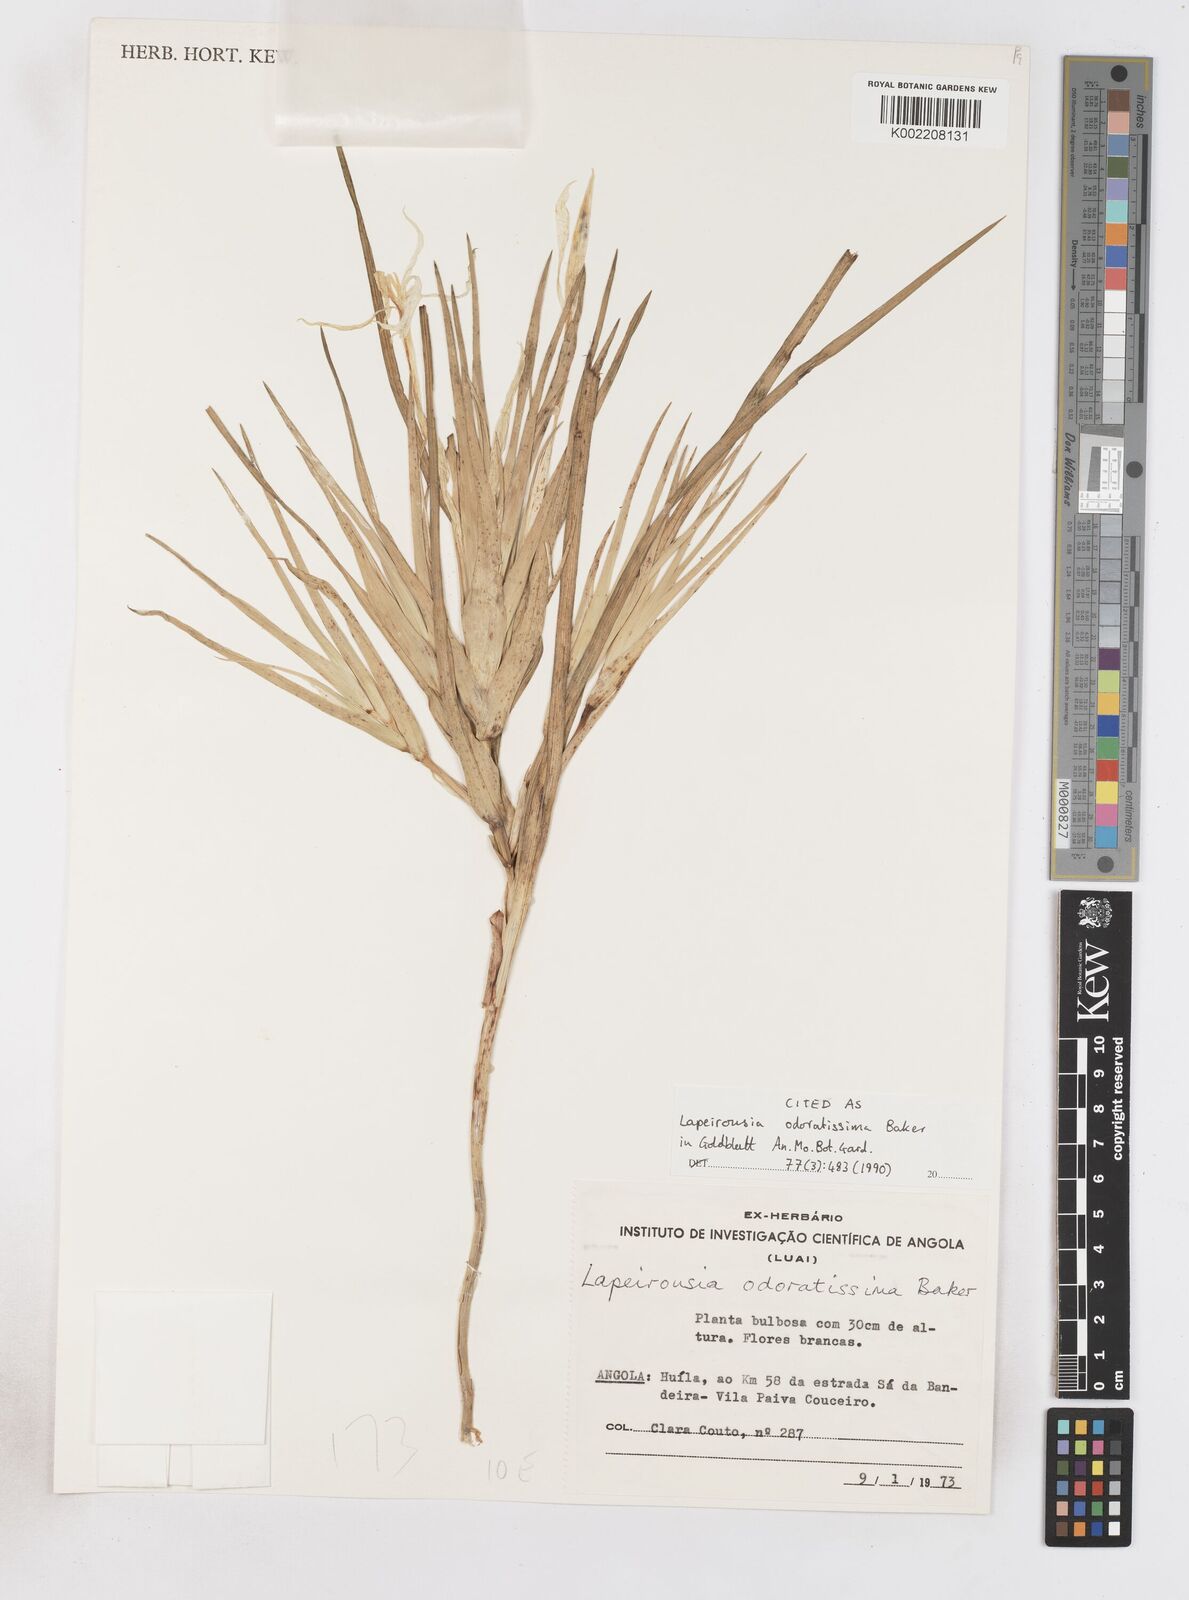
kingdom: Plantae
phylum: Tracheophyta
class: Liliopsida
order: Asparagales
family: Iridaceae
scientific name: Iridaceae
